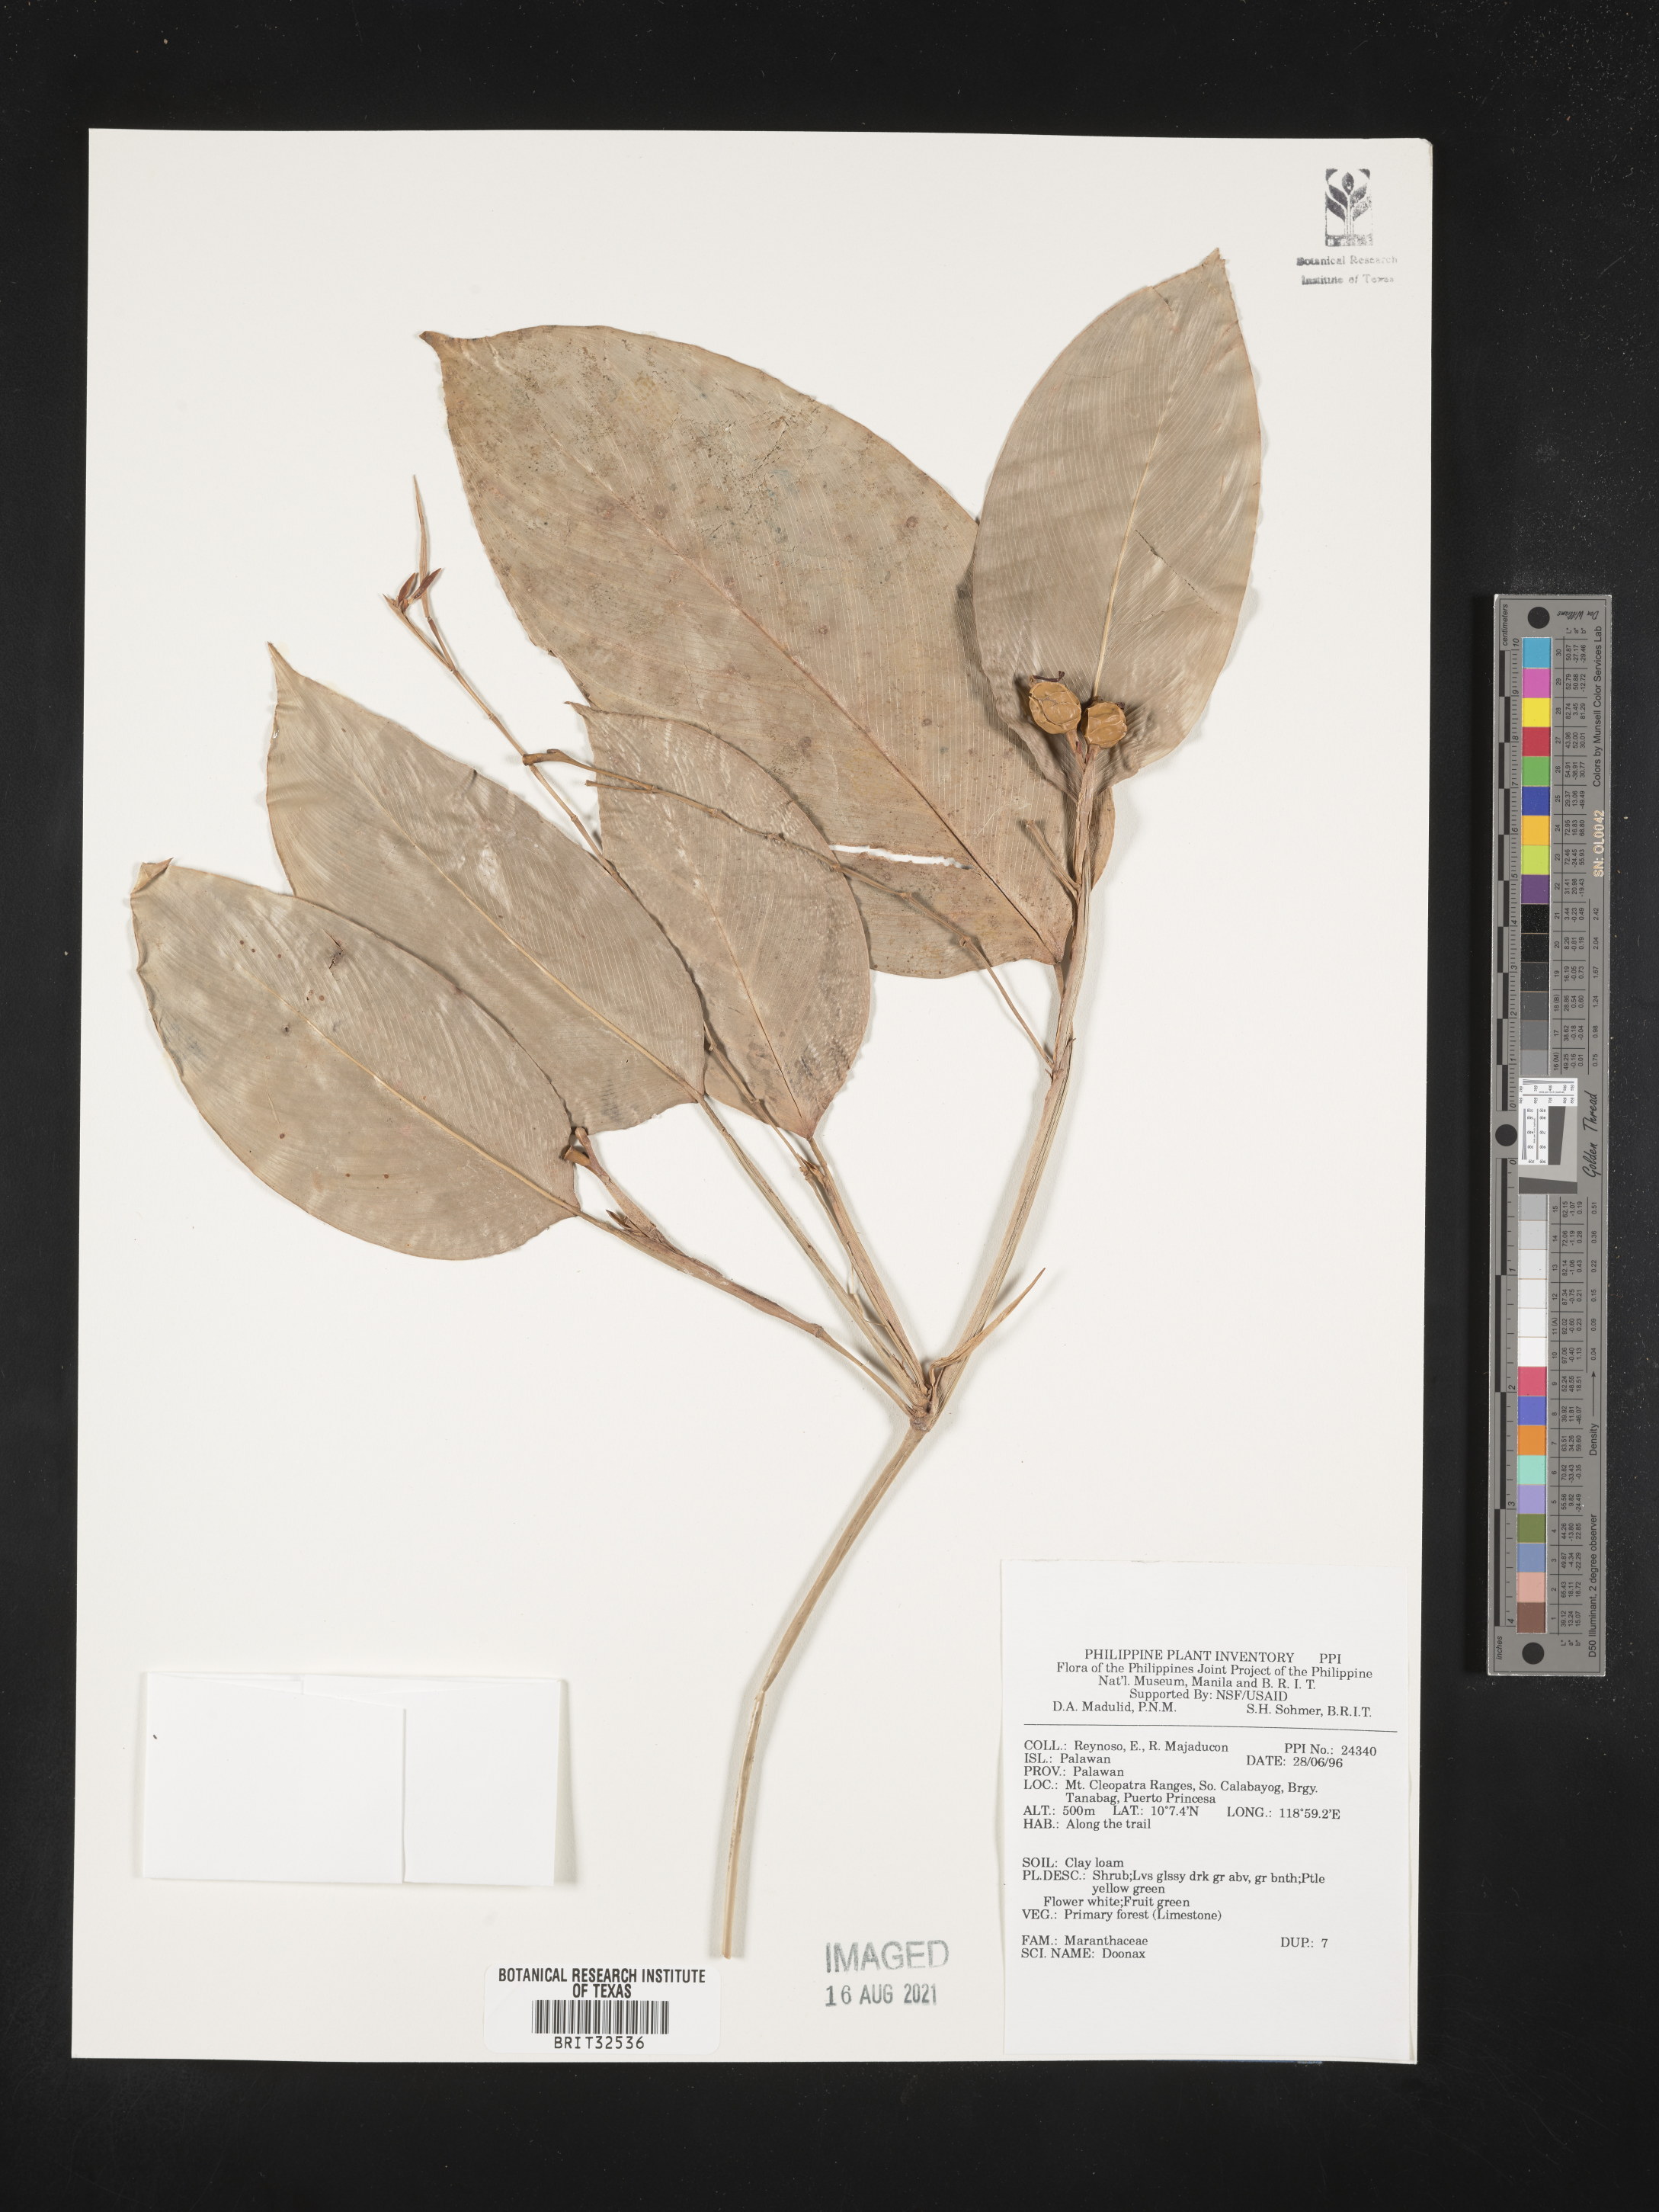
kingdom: Plantae
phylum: Tracheophyta
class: Liliopsida
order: Zingiberales
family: Marantaceae
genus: Donax
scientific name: Donax
